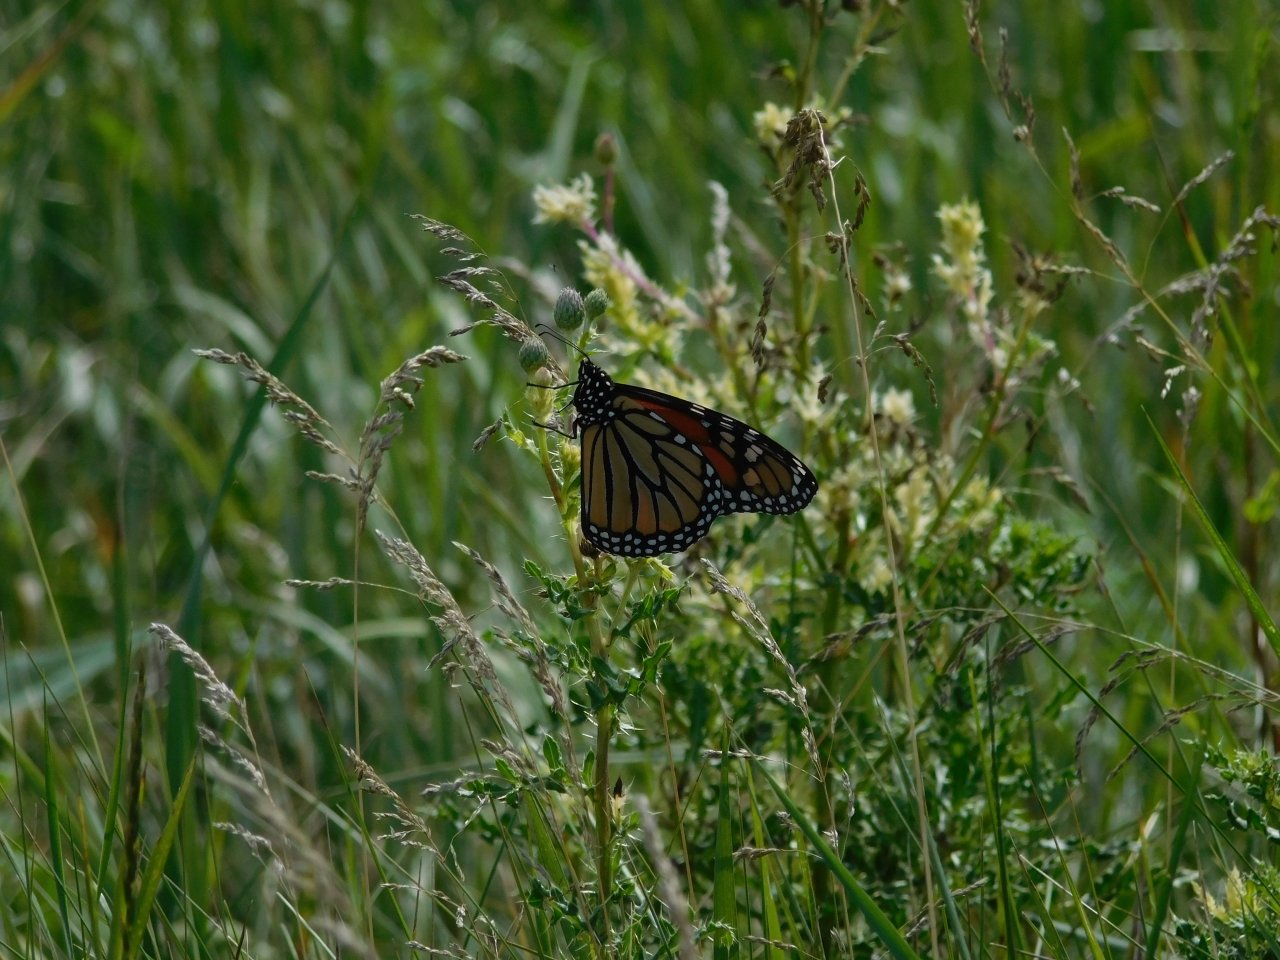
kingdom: Animalia
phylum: Arthropoda
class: Insecta
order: Lepidoptera
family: Nymphalidae
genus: Danaus
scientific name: Danaus plexippus
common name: Monarch
